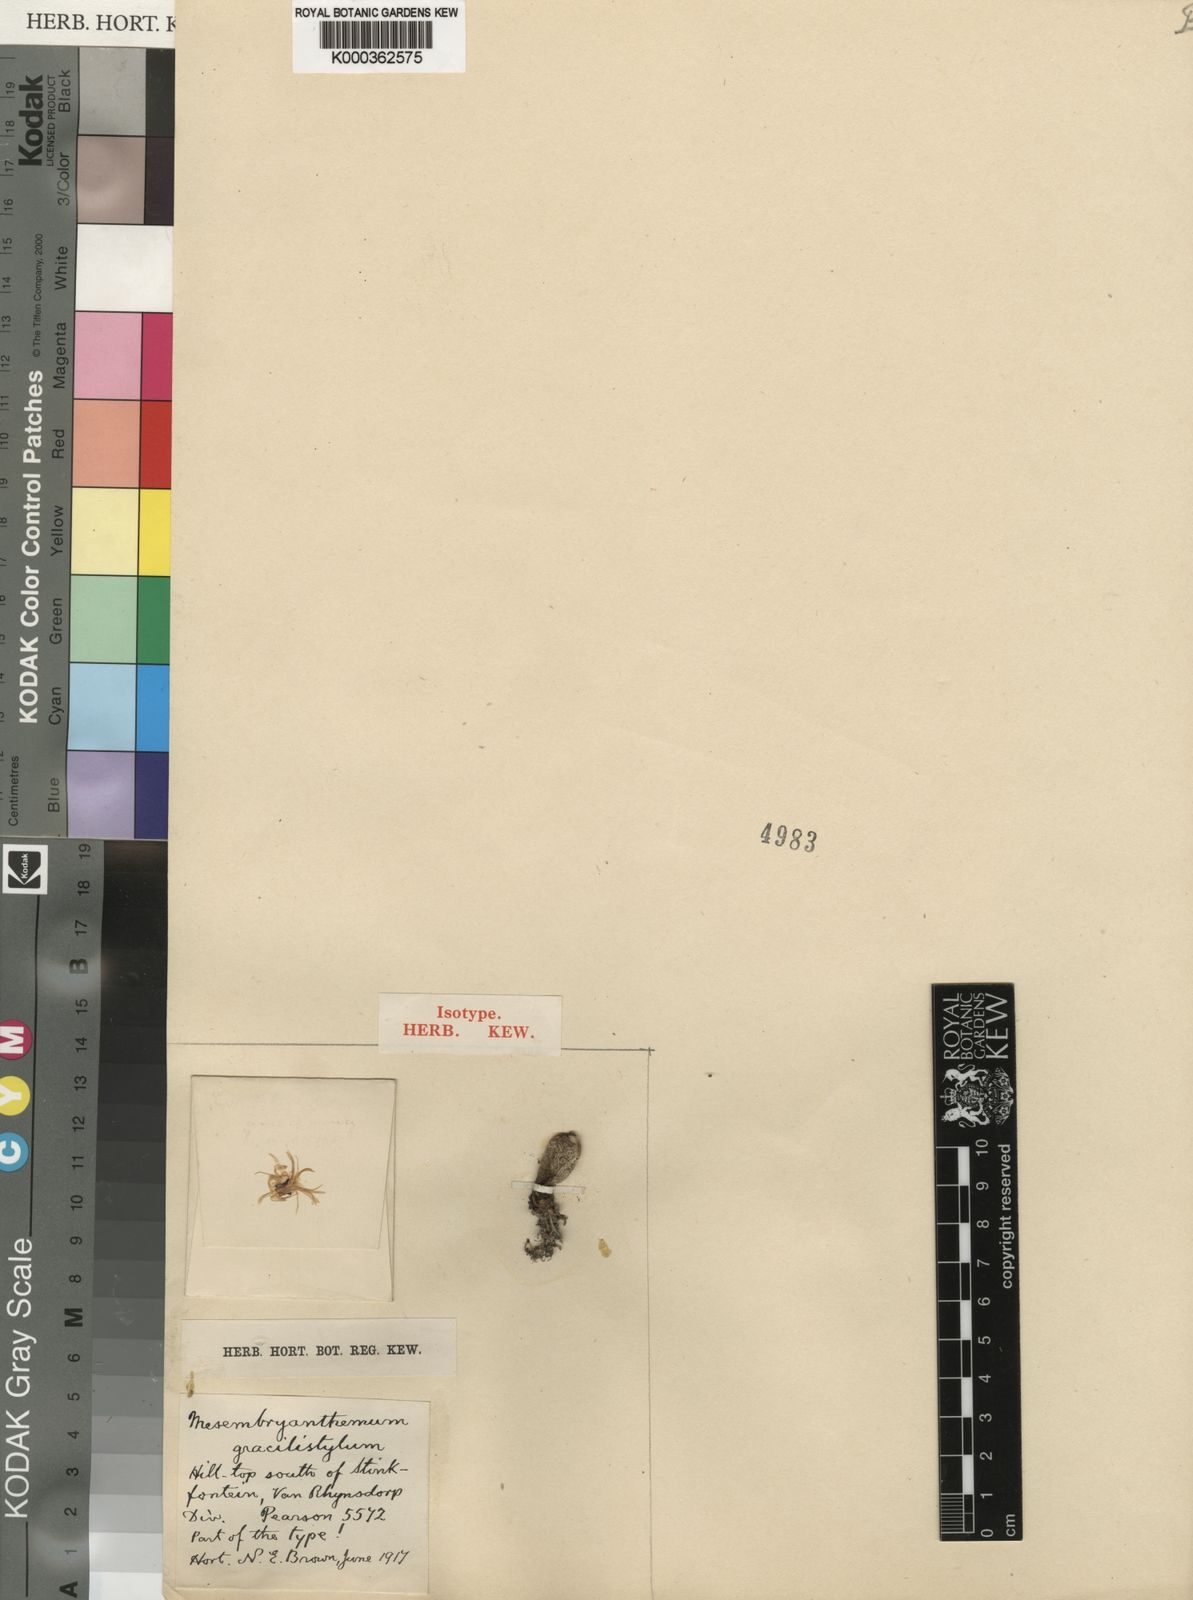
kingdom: Plantae
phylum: Tracheophyta
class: Magnoliopsida
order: Caryophyllales
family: Aizoaceae
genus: Conophytum
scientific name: Conophytum
